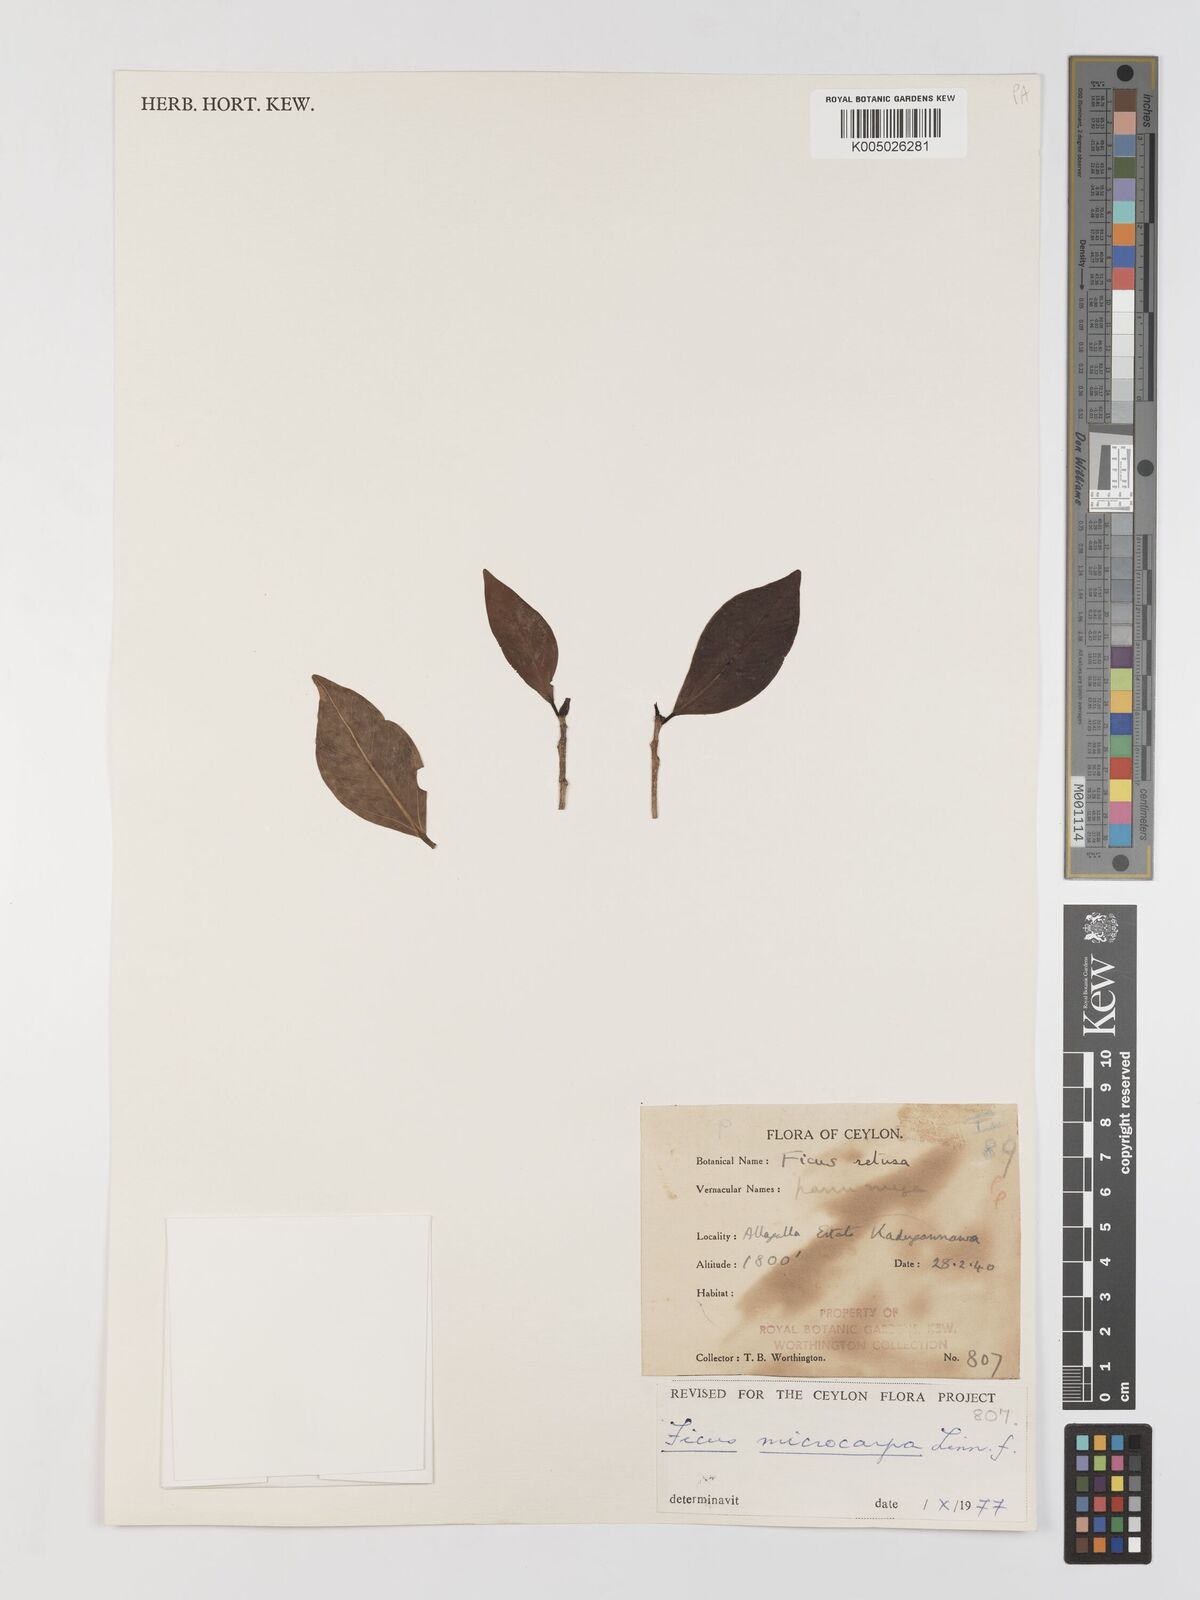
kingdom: Plantae
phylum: Tracheophyta
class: Magnoliopsida
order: Rosales
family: Moraceae
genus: Ficus
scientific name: Ficus
